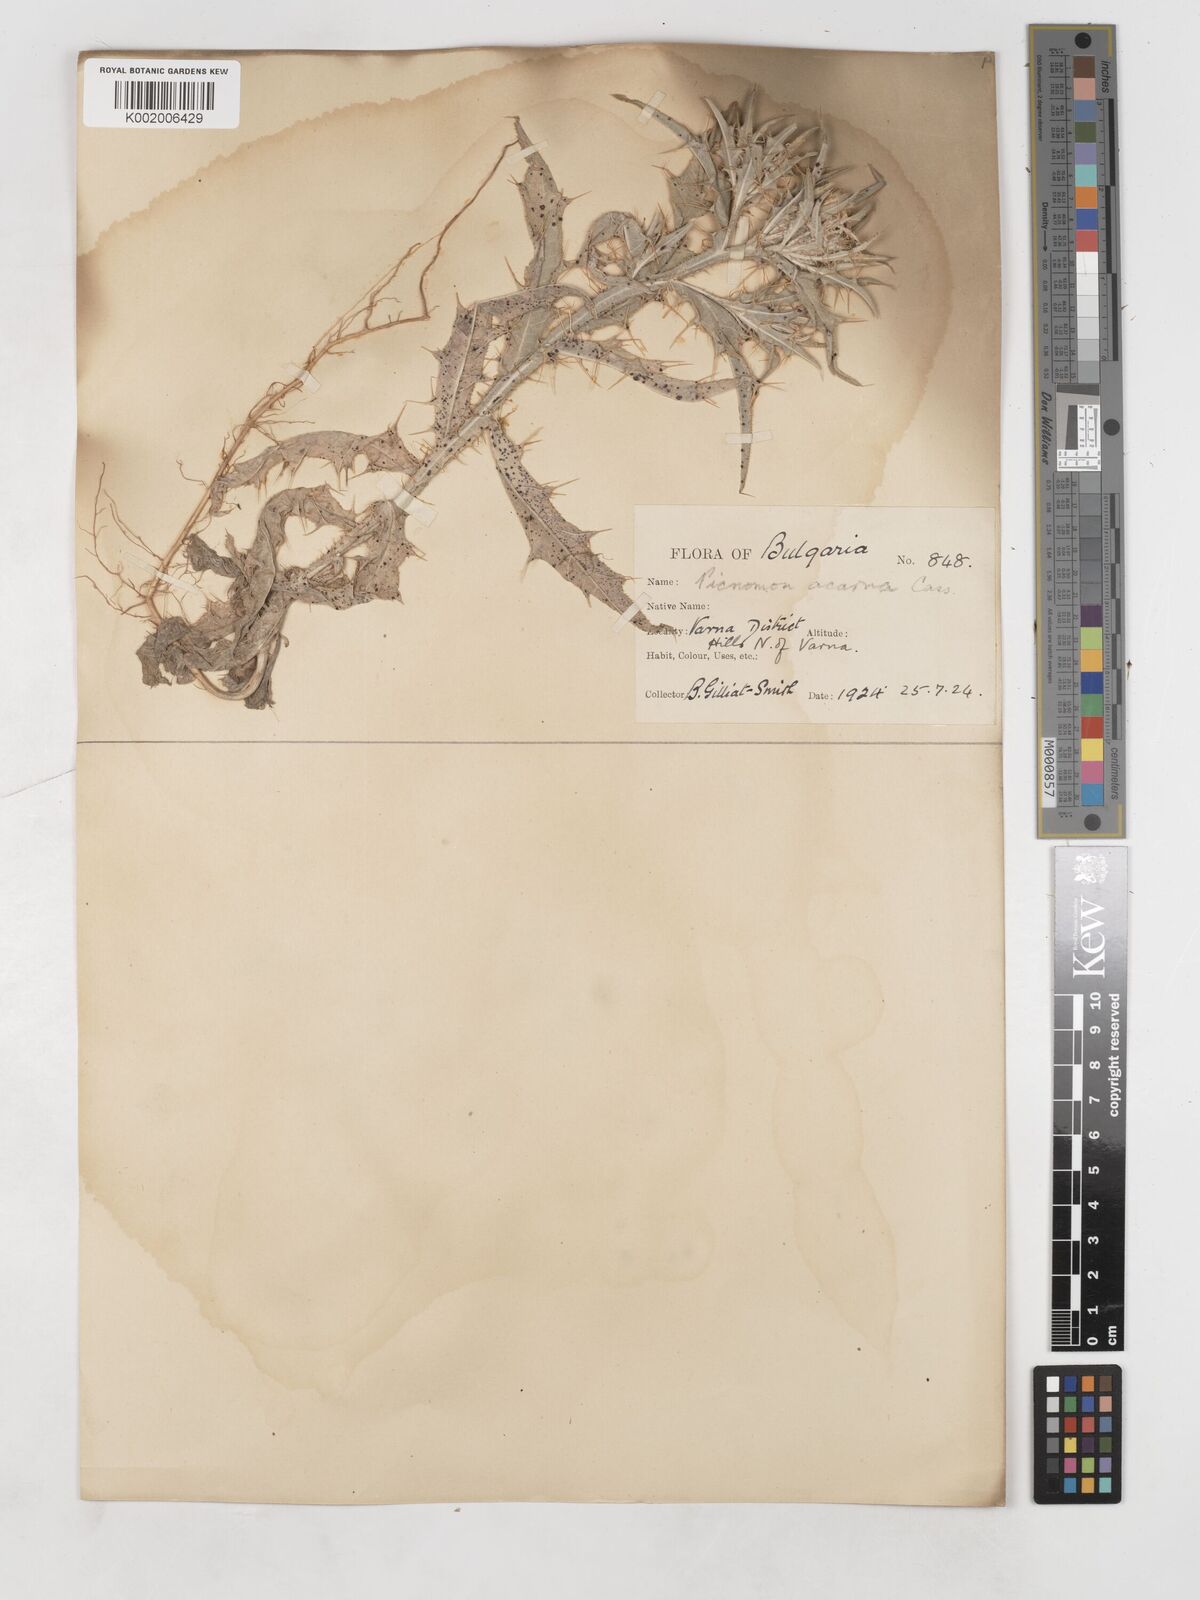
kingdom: Plantae
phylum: Tracheophyta
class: Magnoliopsida
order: Asterales
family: Asteraceae
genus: Picnomon
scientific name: Picnomon acarna
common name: Soldier thistle
